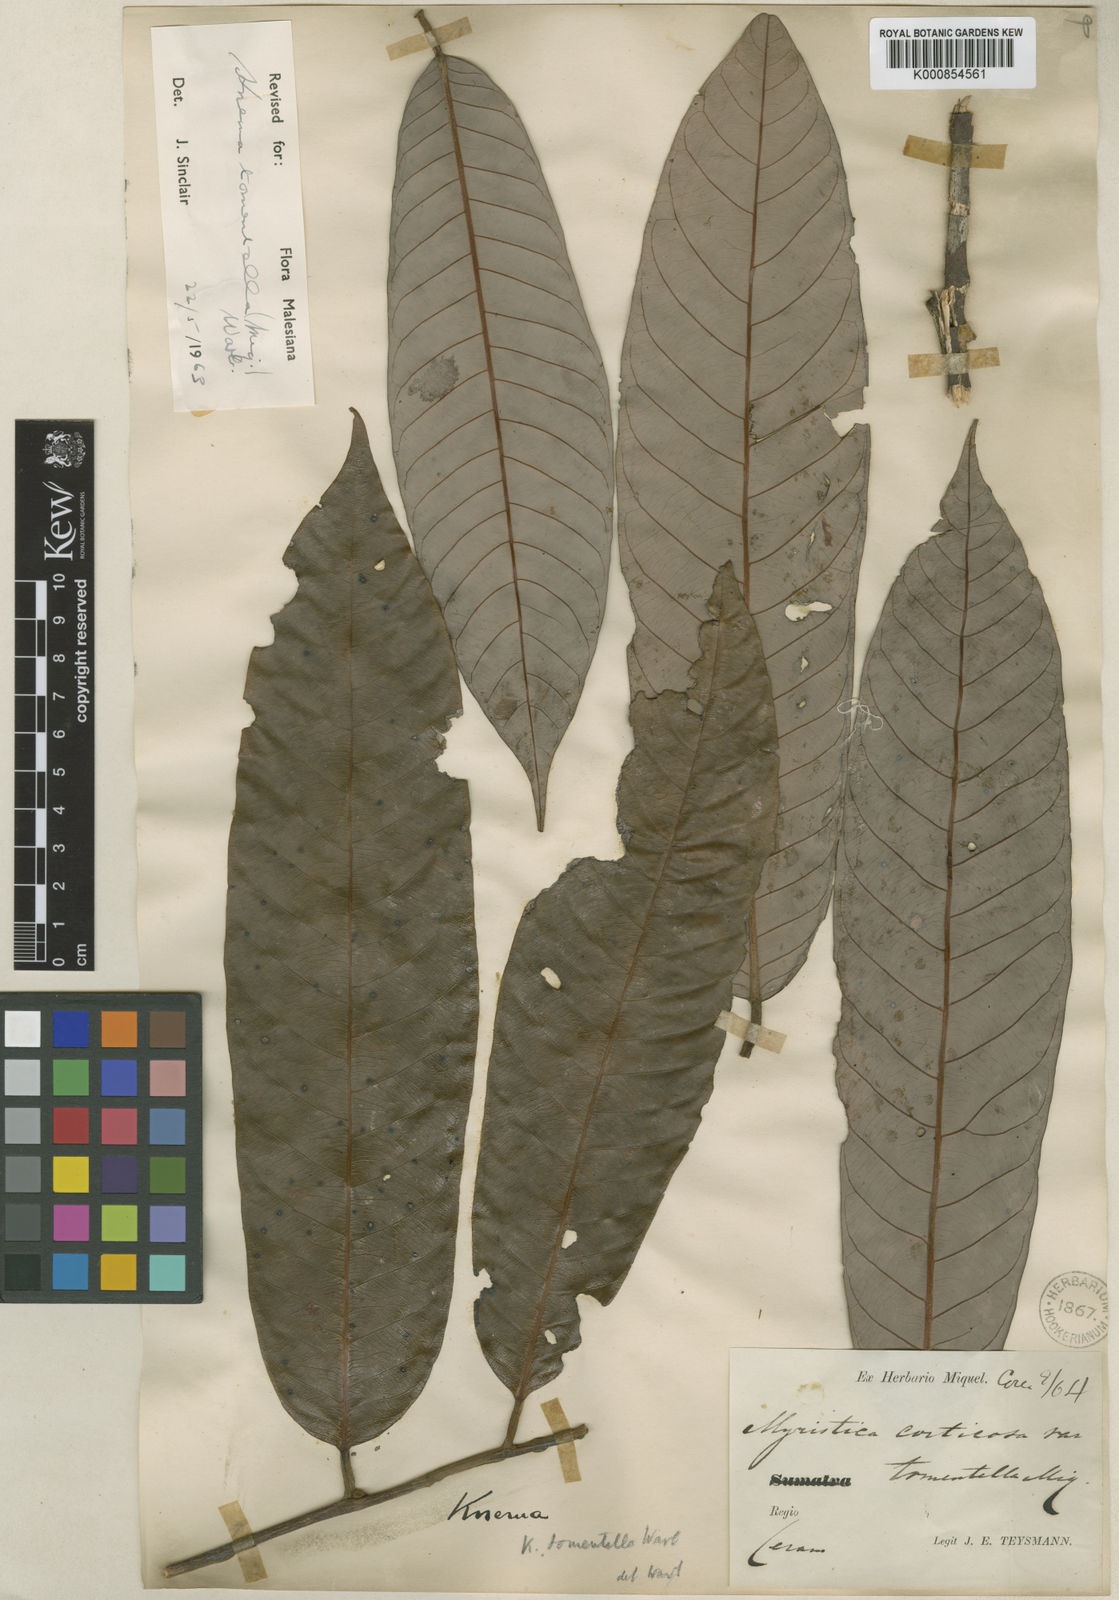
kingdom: Plantae
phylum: Tracheophyta
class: Magnoliopsida
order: Magnoliales
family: Myristicaceae
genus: Knema
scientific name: Knema tomentella
